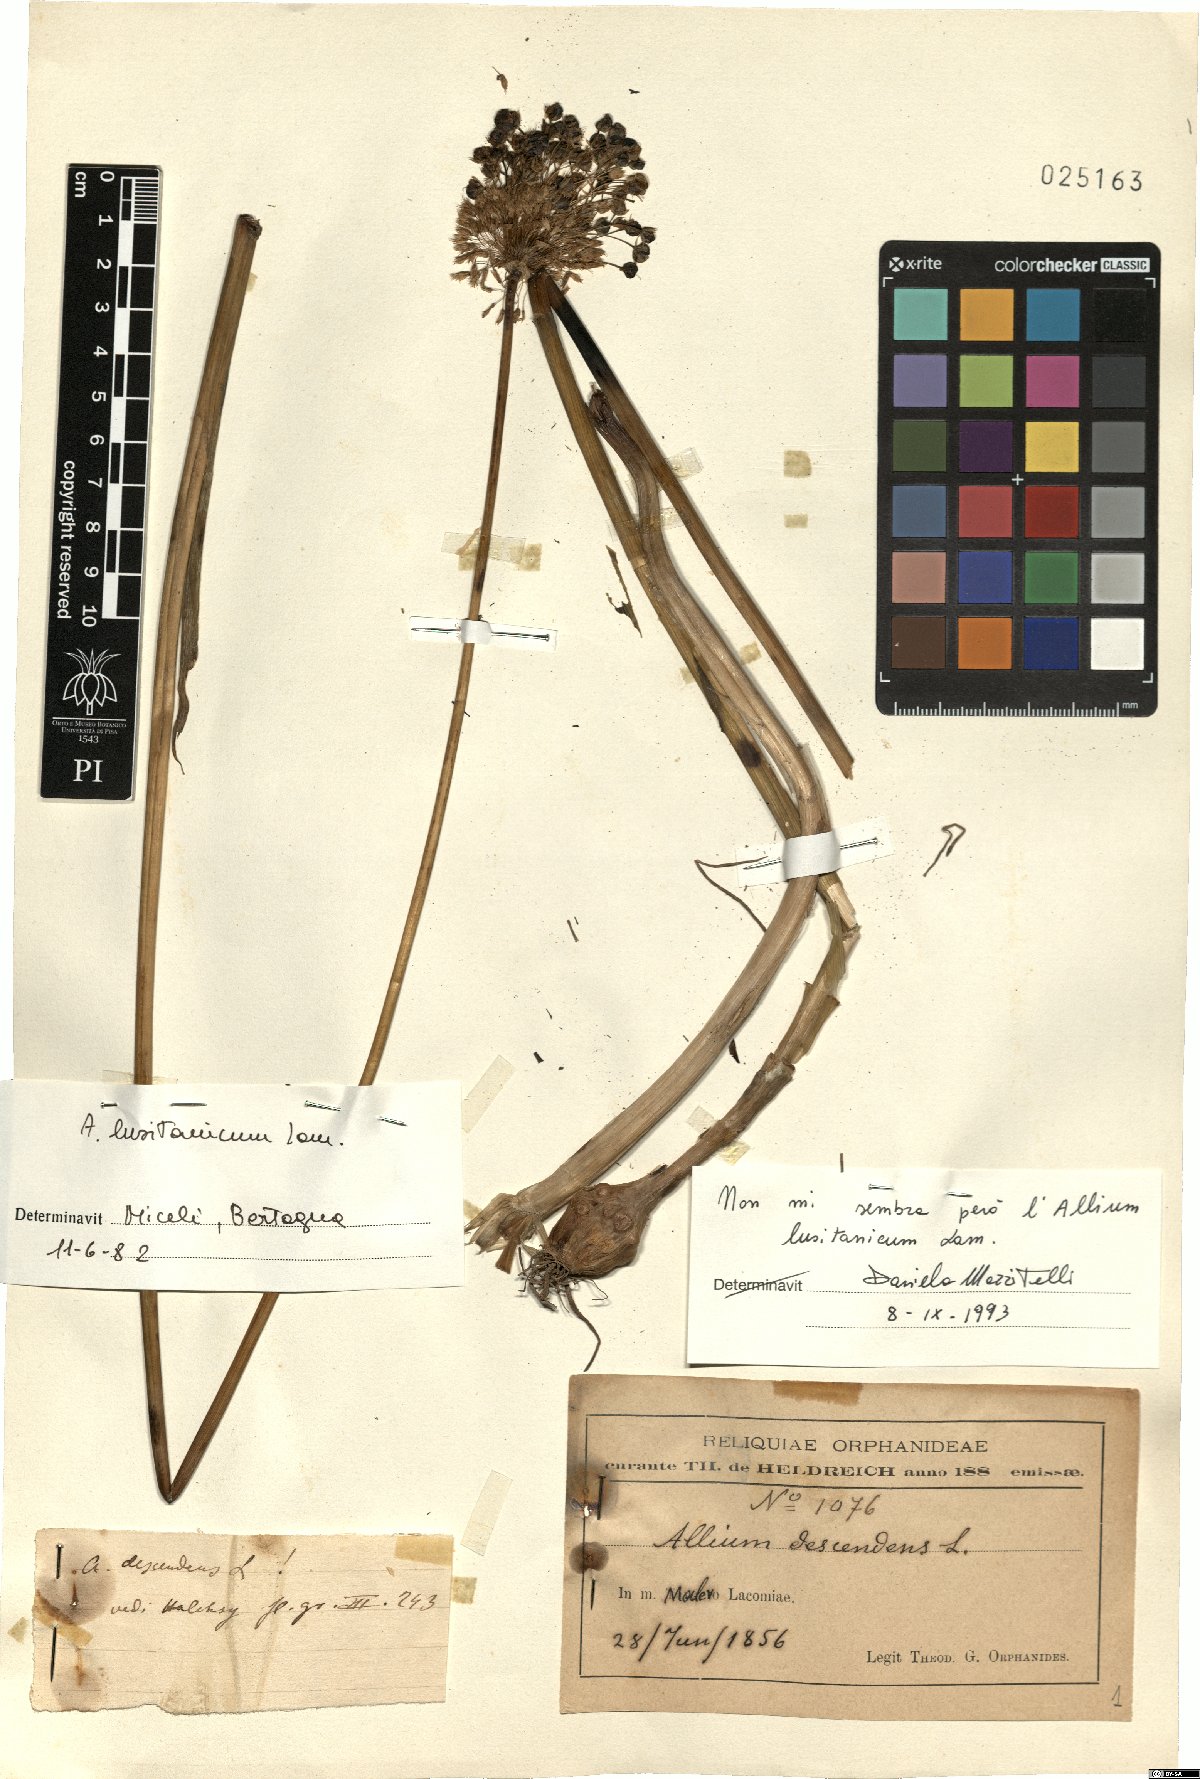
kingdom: Plantae
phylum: Tracheophyta
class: Liliopsida
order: Asparagales
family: Amaryllidaceae
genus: Allium
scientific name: Allium lusitanicum
